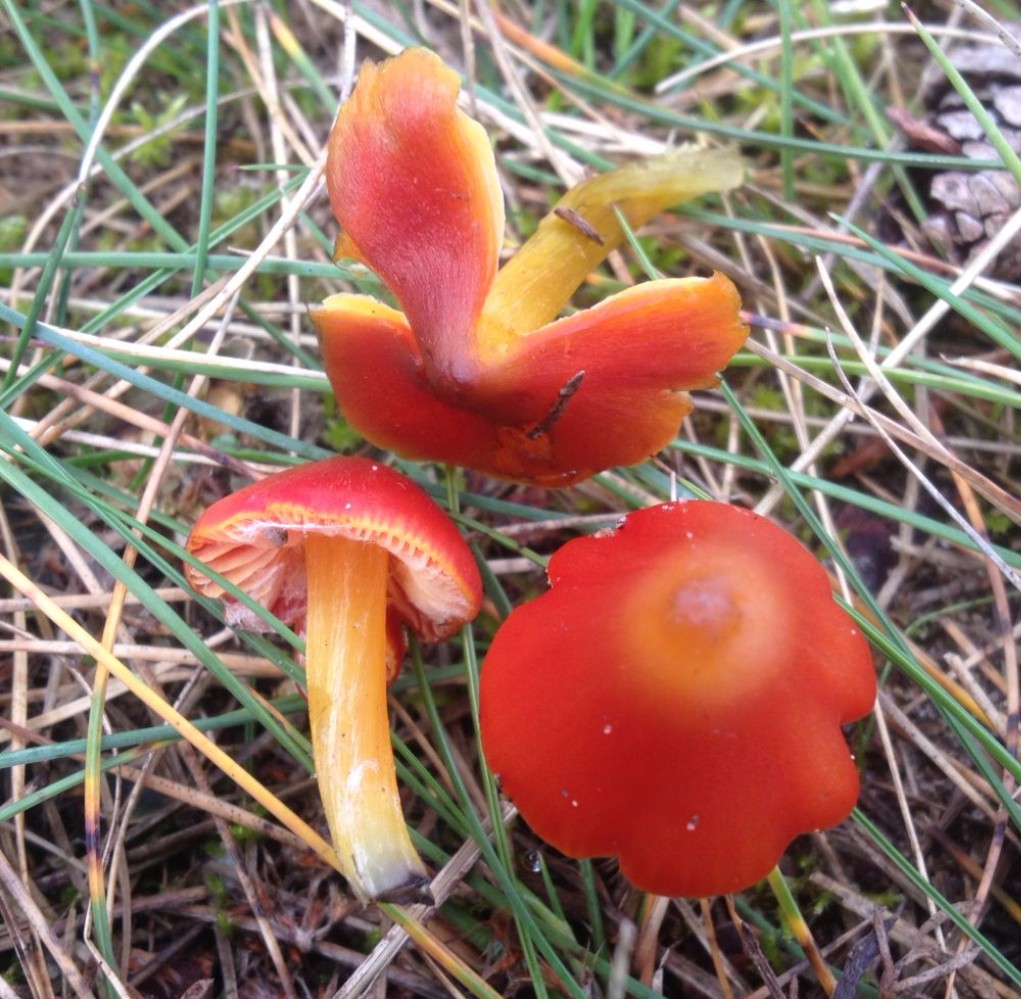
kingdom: Fungi
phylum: Basidiomycota
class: Agaricomycetes
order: Agaricales
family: Hygrophoraceae
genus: Hygrocybe
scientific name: Hygrocybe conica
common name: kegle-vokshat
